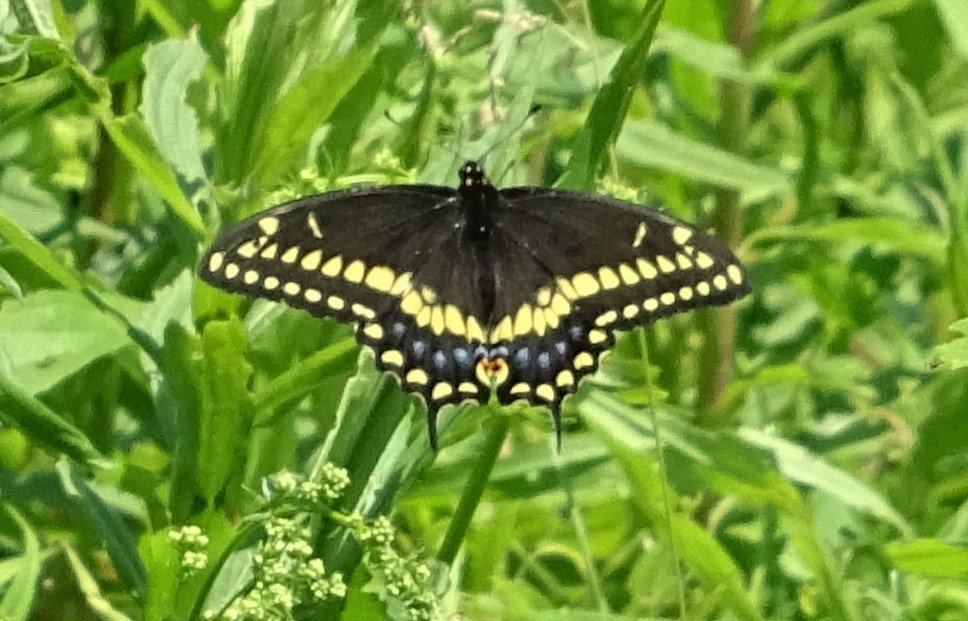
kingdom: Animalia
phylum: Arthropoda
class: Insecta
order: Lepidoptera
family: Papilionidae
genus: Papilio
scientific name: Papilio polyxenes
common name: Black Swallowtail
